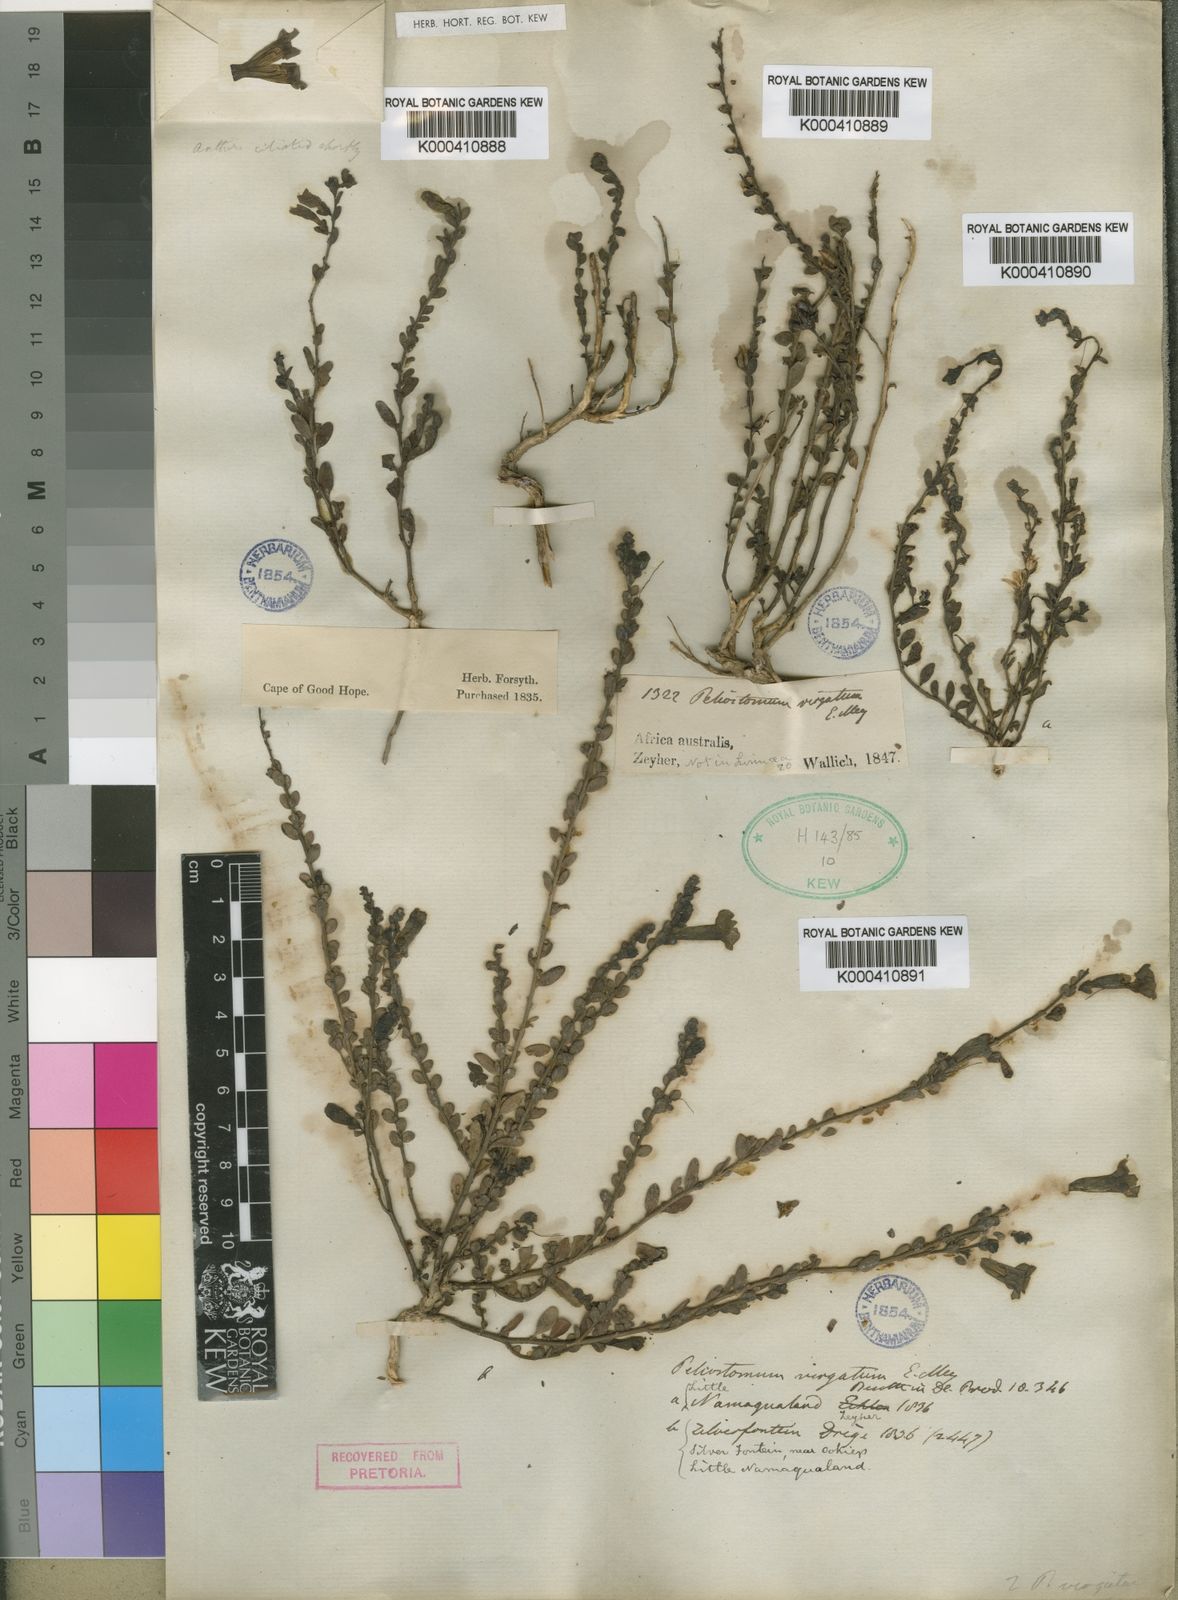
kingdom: Plantae
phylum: Tracheophyta
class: Magnoliopsida
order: Lamiales
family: Scrophulariaceae
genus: Peliostomum
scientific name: Peliostomum virgatum
